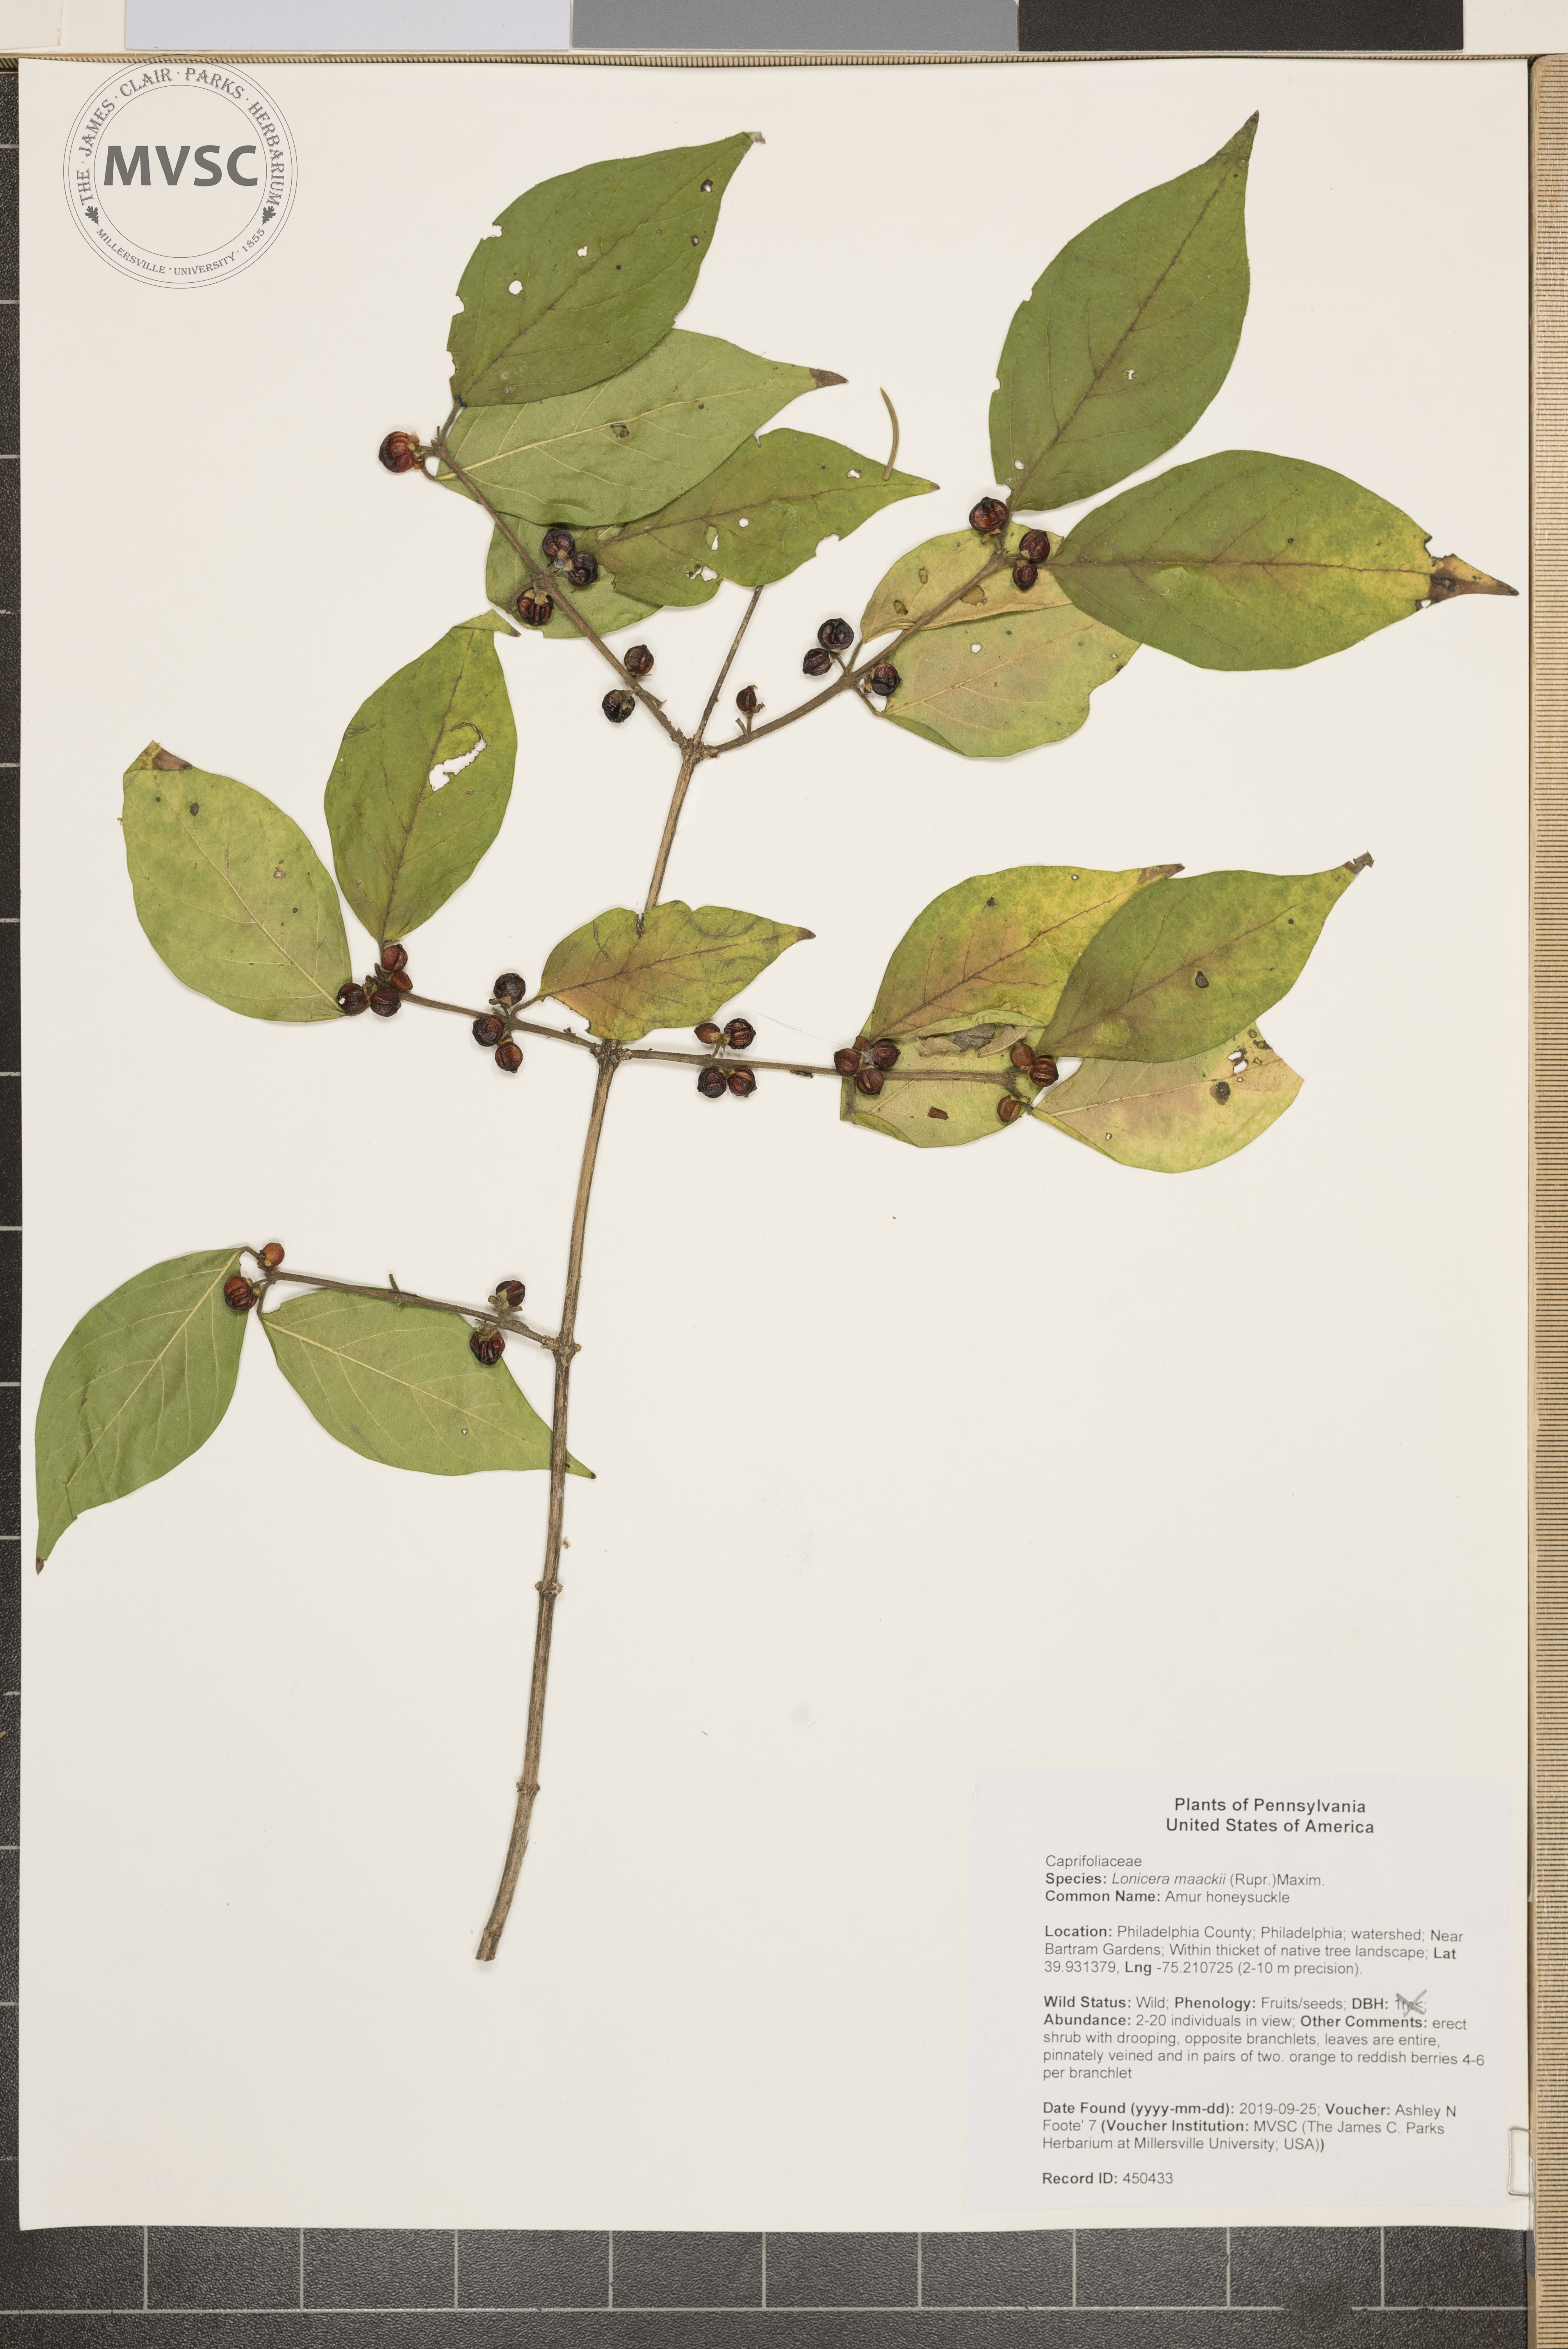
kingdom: Plantae
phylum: Tracheophyta
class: Magnoliopsida
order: Dipsacales
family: Caprifoliaceae
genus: Lonicera
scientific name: Lonicera maackii
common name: Amur honeysuckle
